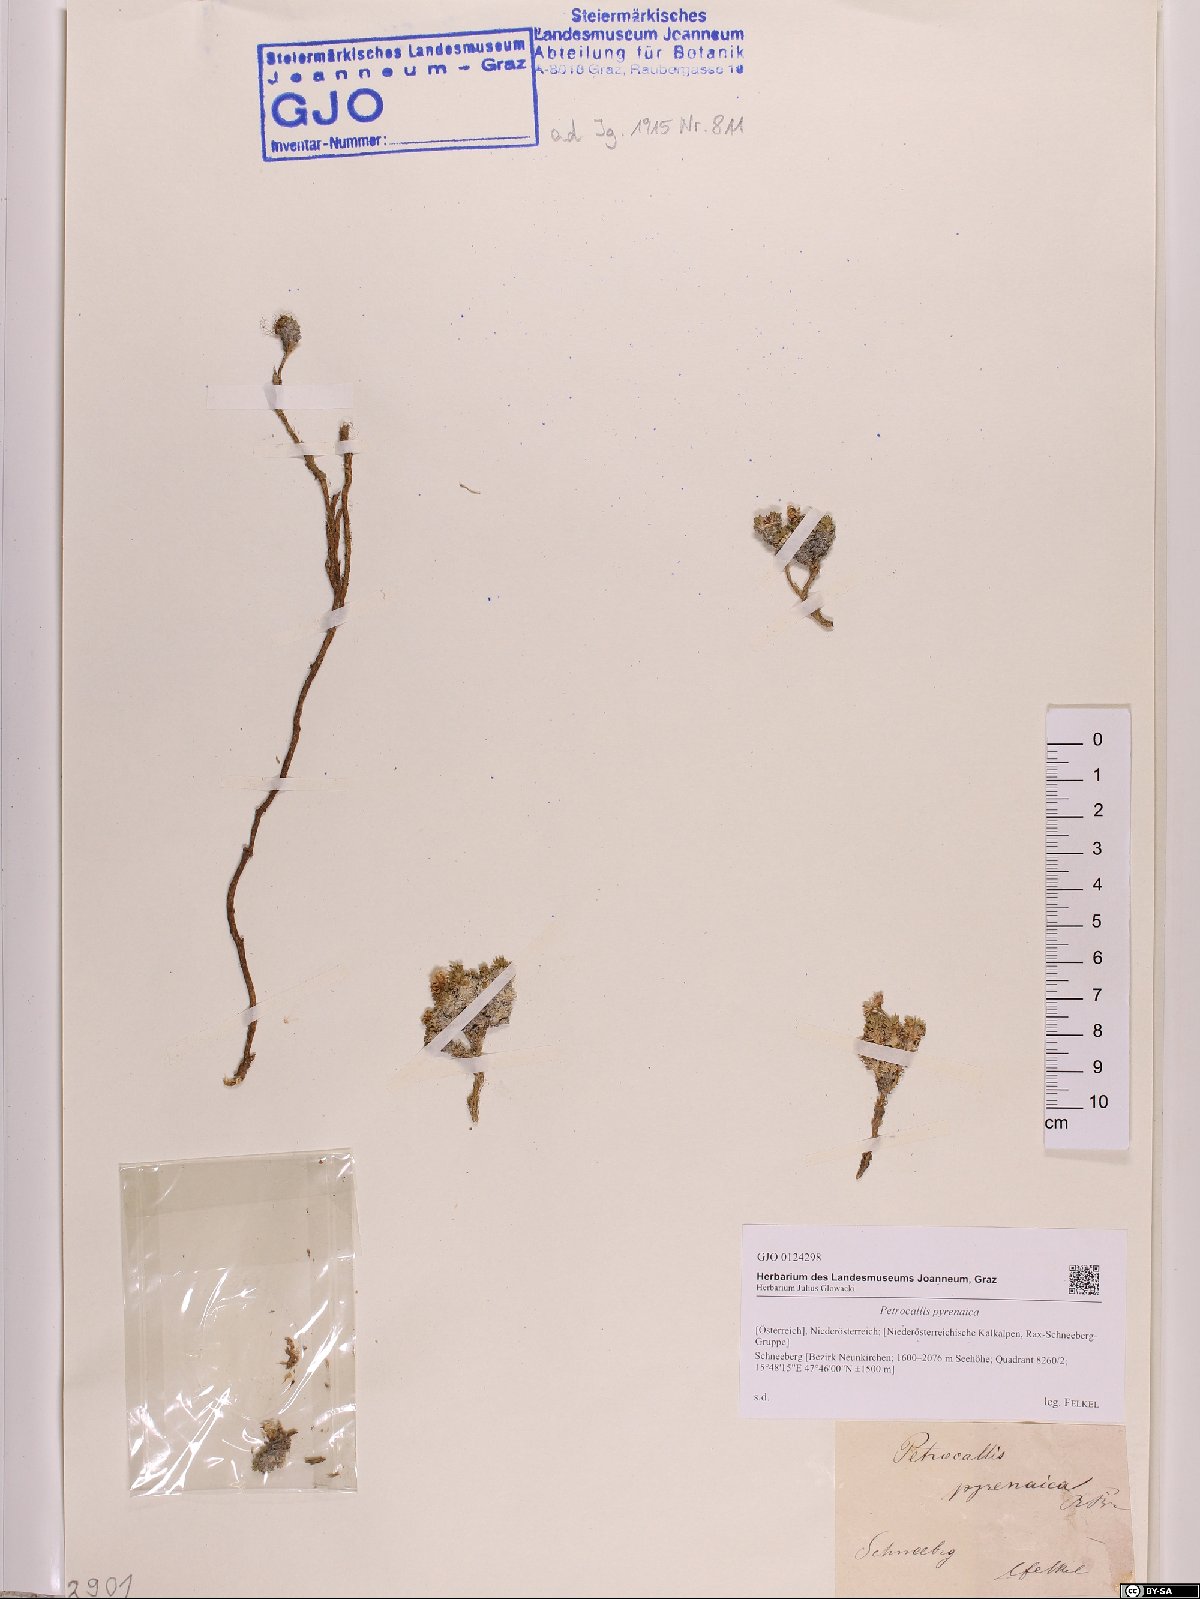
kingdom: Plantae
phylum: Tracheophyta
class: Magnoliopsida
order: Brassicales
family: Brassicaceae
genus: Petrocallis
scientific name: Petrocallis pyrenaica
